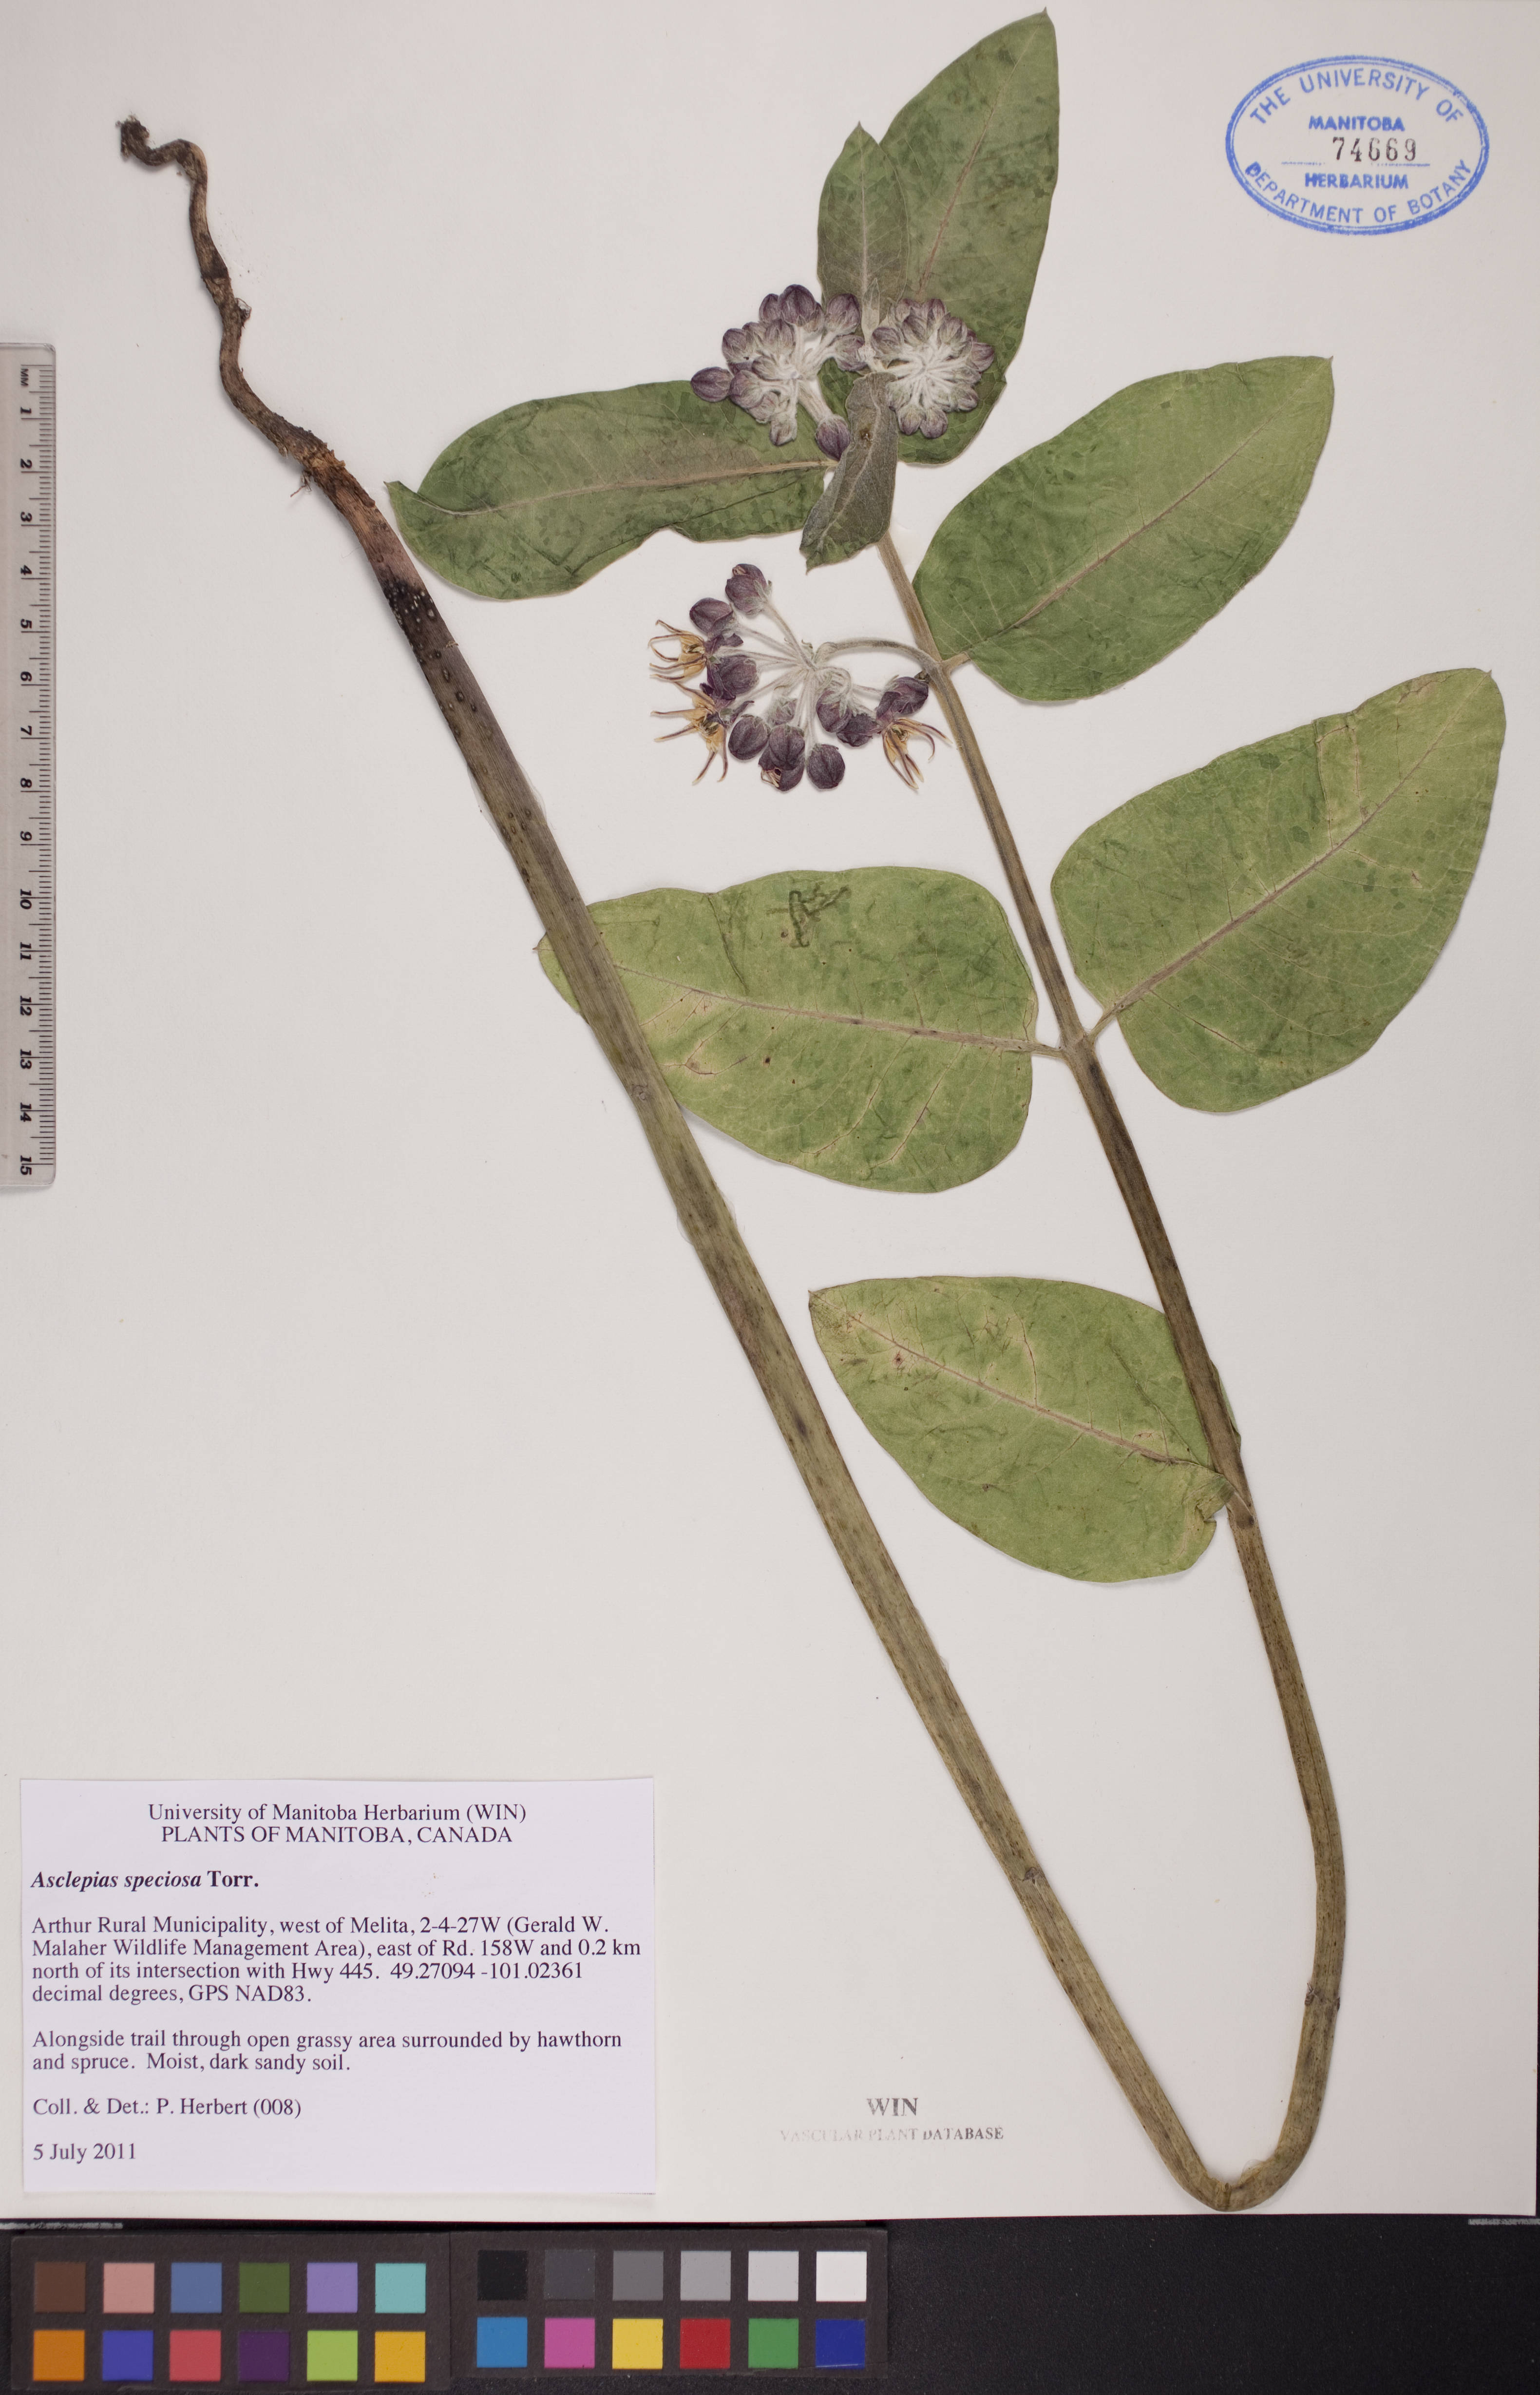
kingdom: Plantae
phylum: Tracheophyta
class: Magnoliopsida
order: Gentianales
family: Apocynaceae
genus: Asclepias
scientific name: Asclepias speciosa
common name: Showy milkweed
